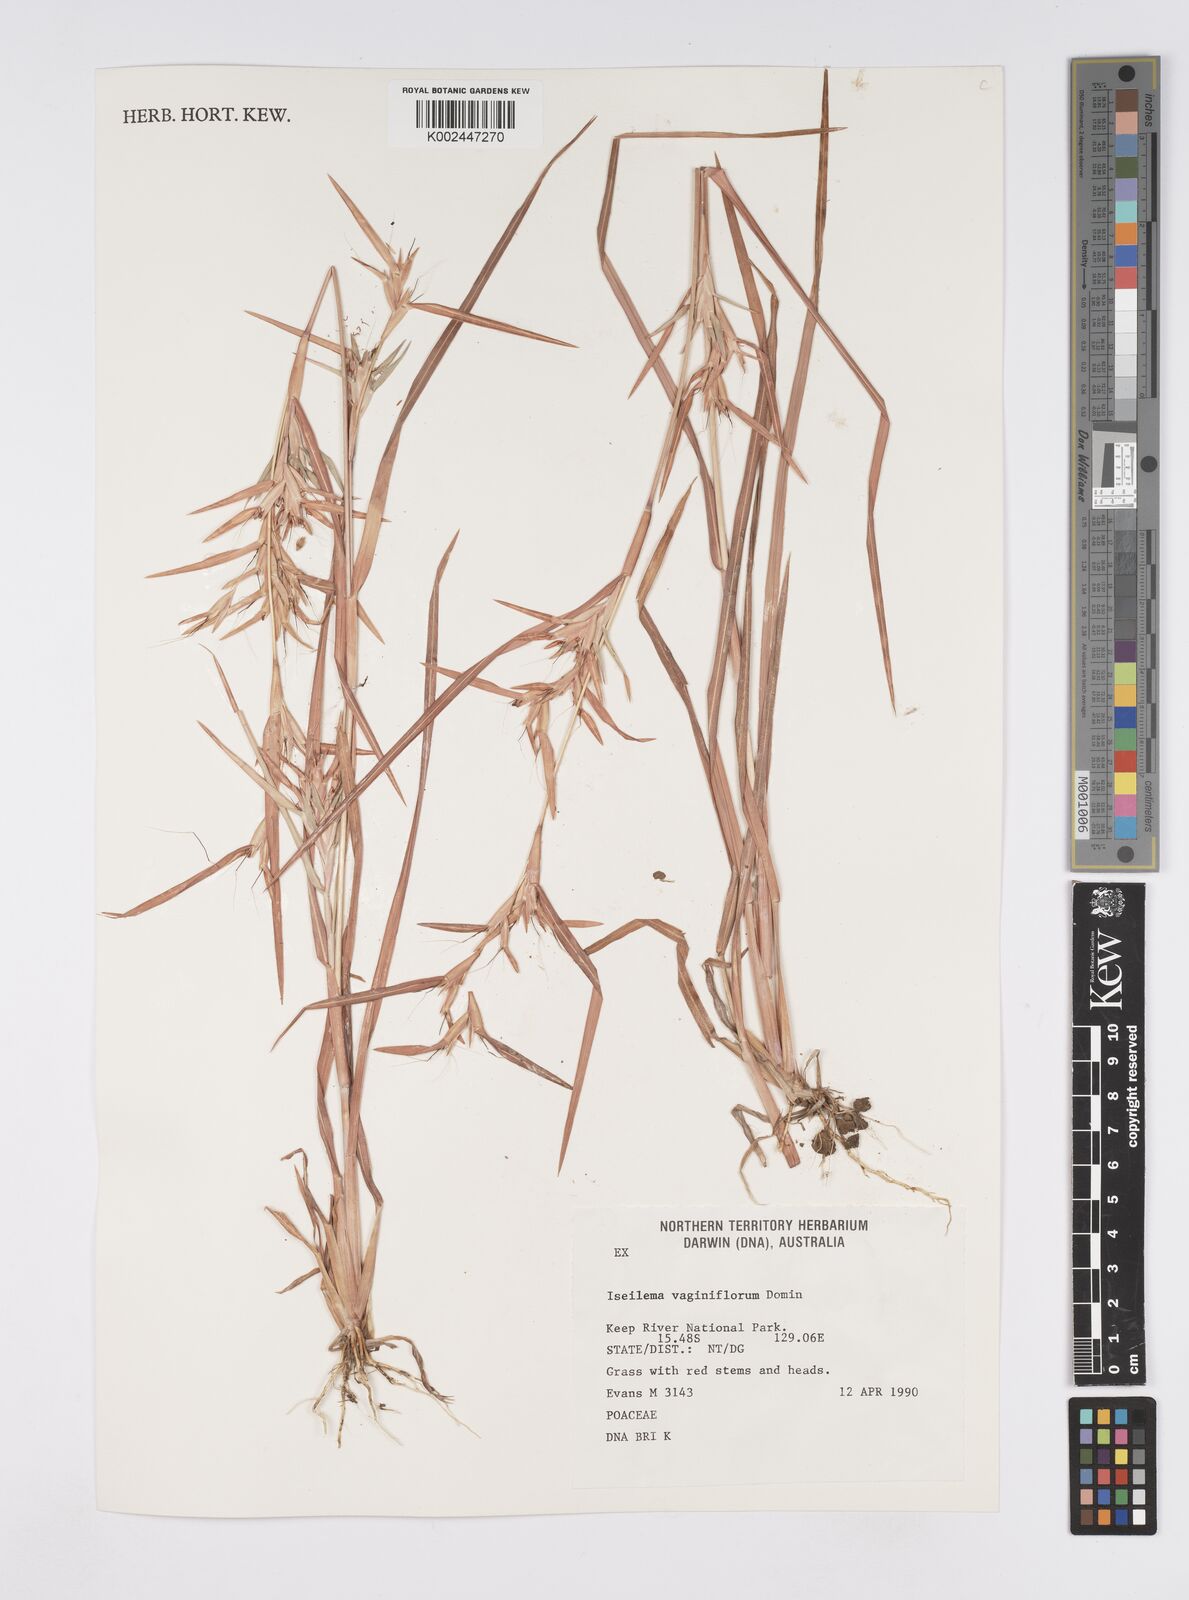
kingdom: Plantae
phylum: Tracheophyta
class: Liliopsida
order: Poales
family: Poaceae
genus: Iseilema
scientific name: Iseilema vaginiflorum
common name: Red flinders grass
